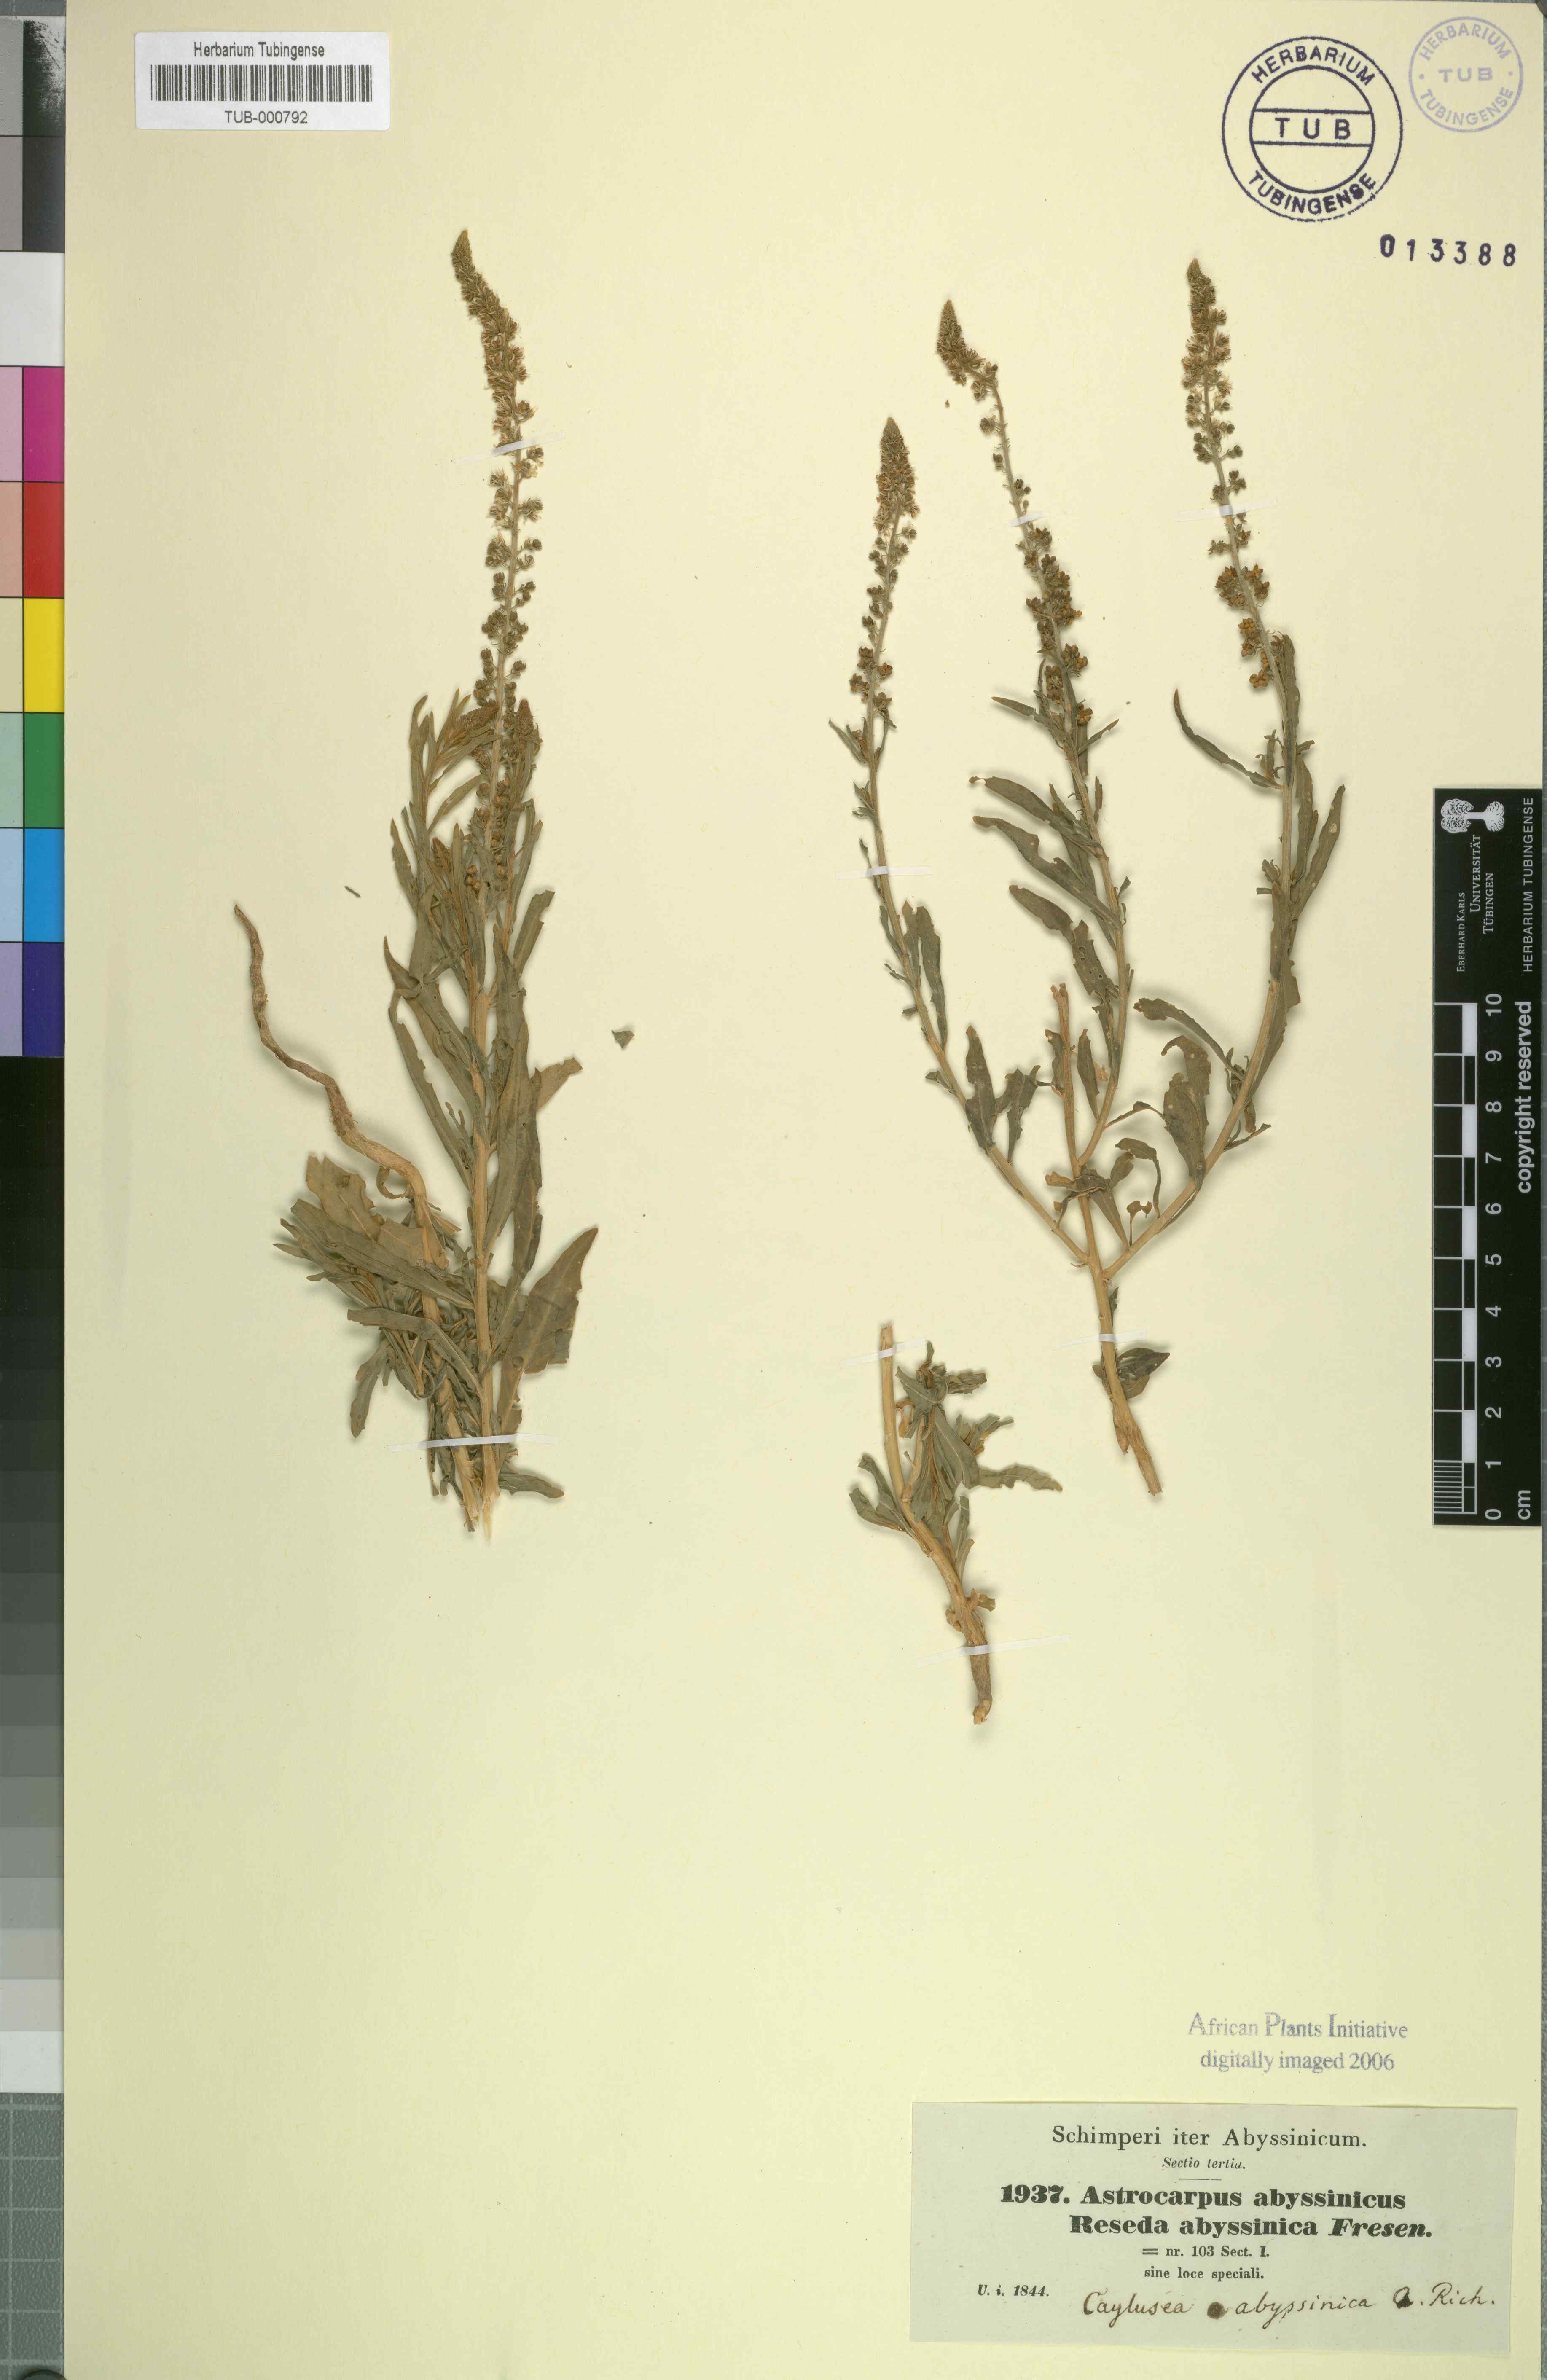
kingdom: Plantae
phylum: Tracheophyta
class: Magnoliopsida
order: Brassicales
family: Resedaceae
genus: Caylusea
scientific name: Caylusea abyssinica
